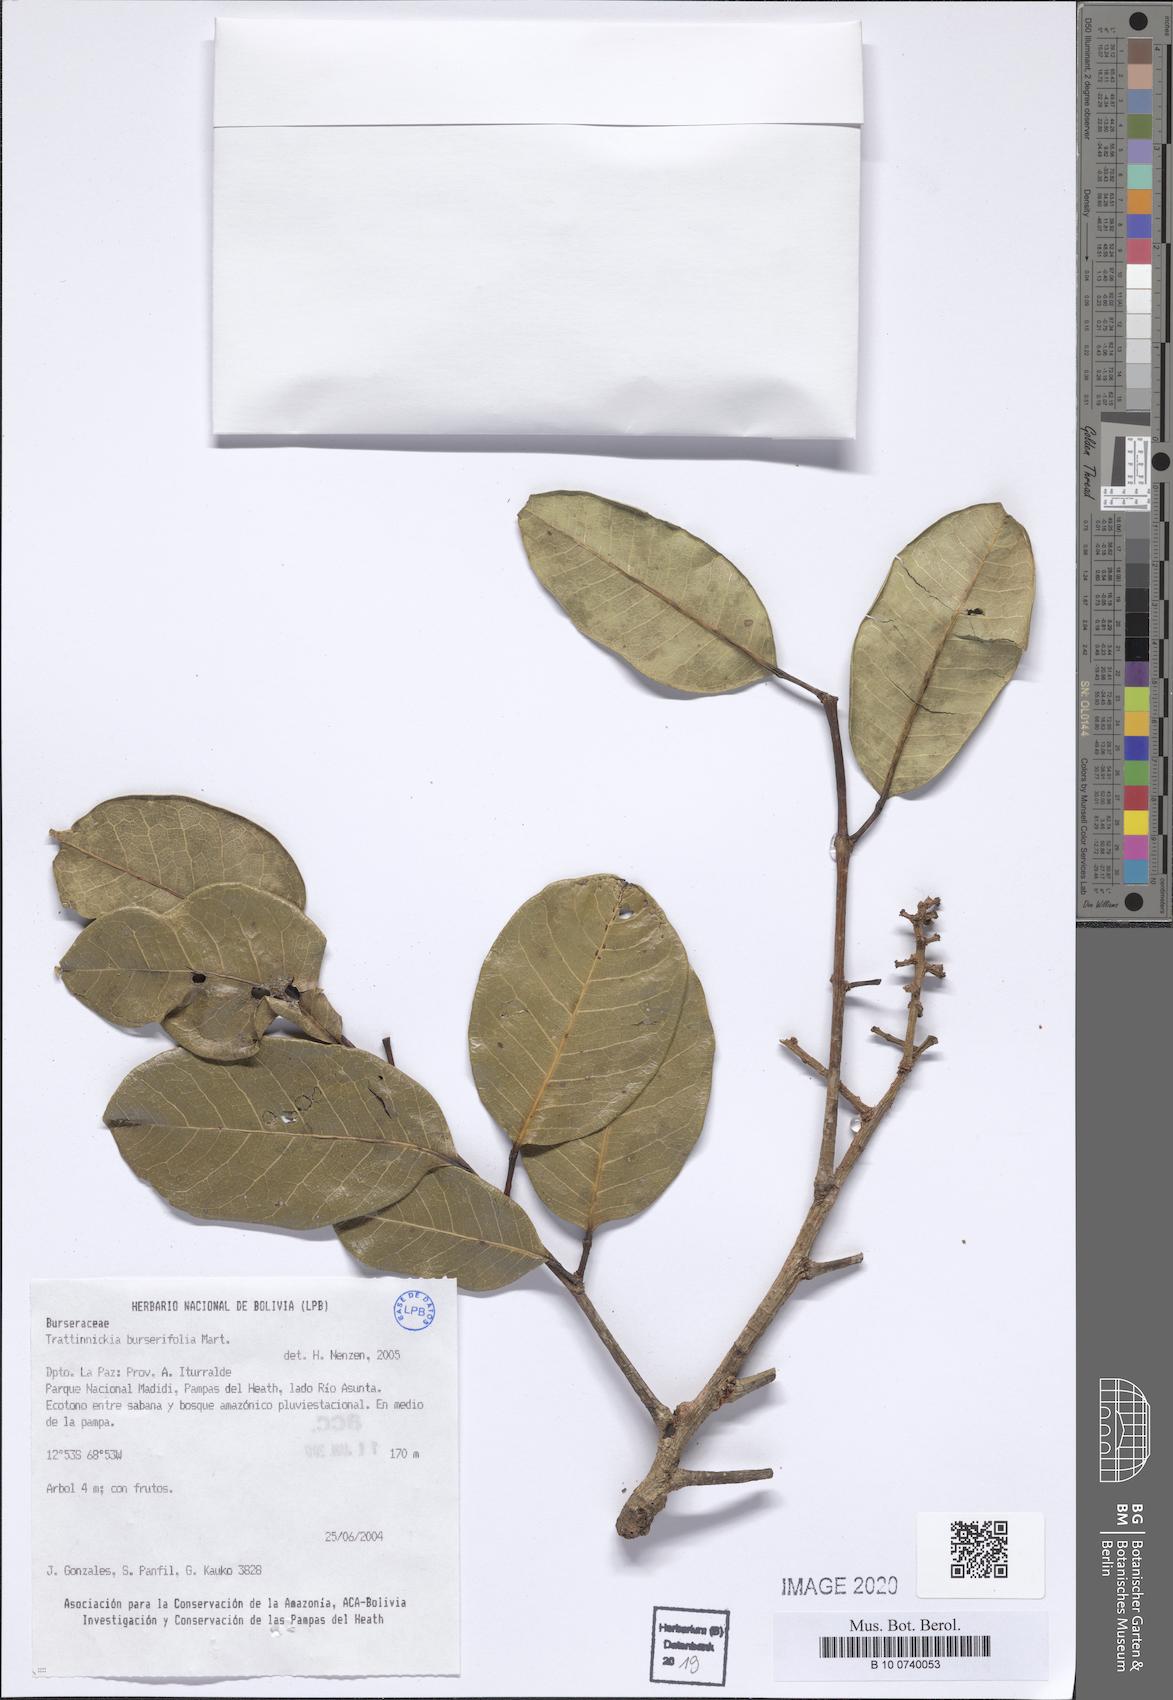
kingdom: Plantae
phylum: Tracheophyta
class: Magnoliopsida
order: Sapindales
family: Burseraceae
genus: Trattinnickia
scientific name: Trattinnickia burserifolia
